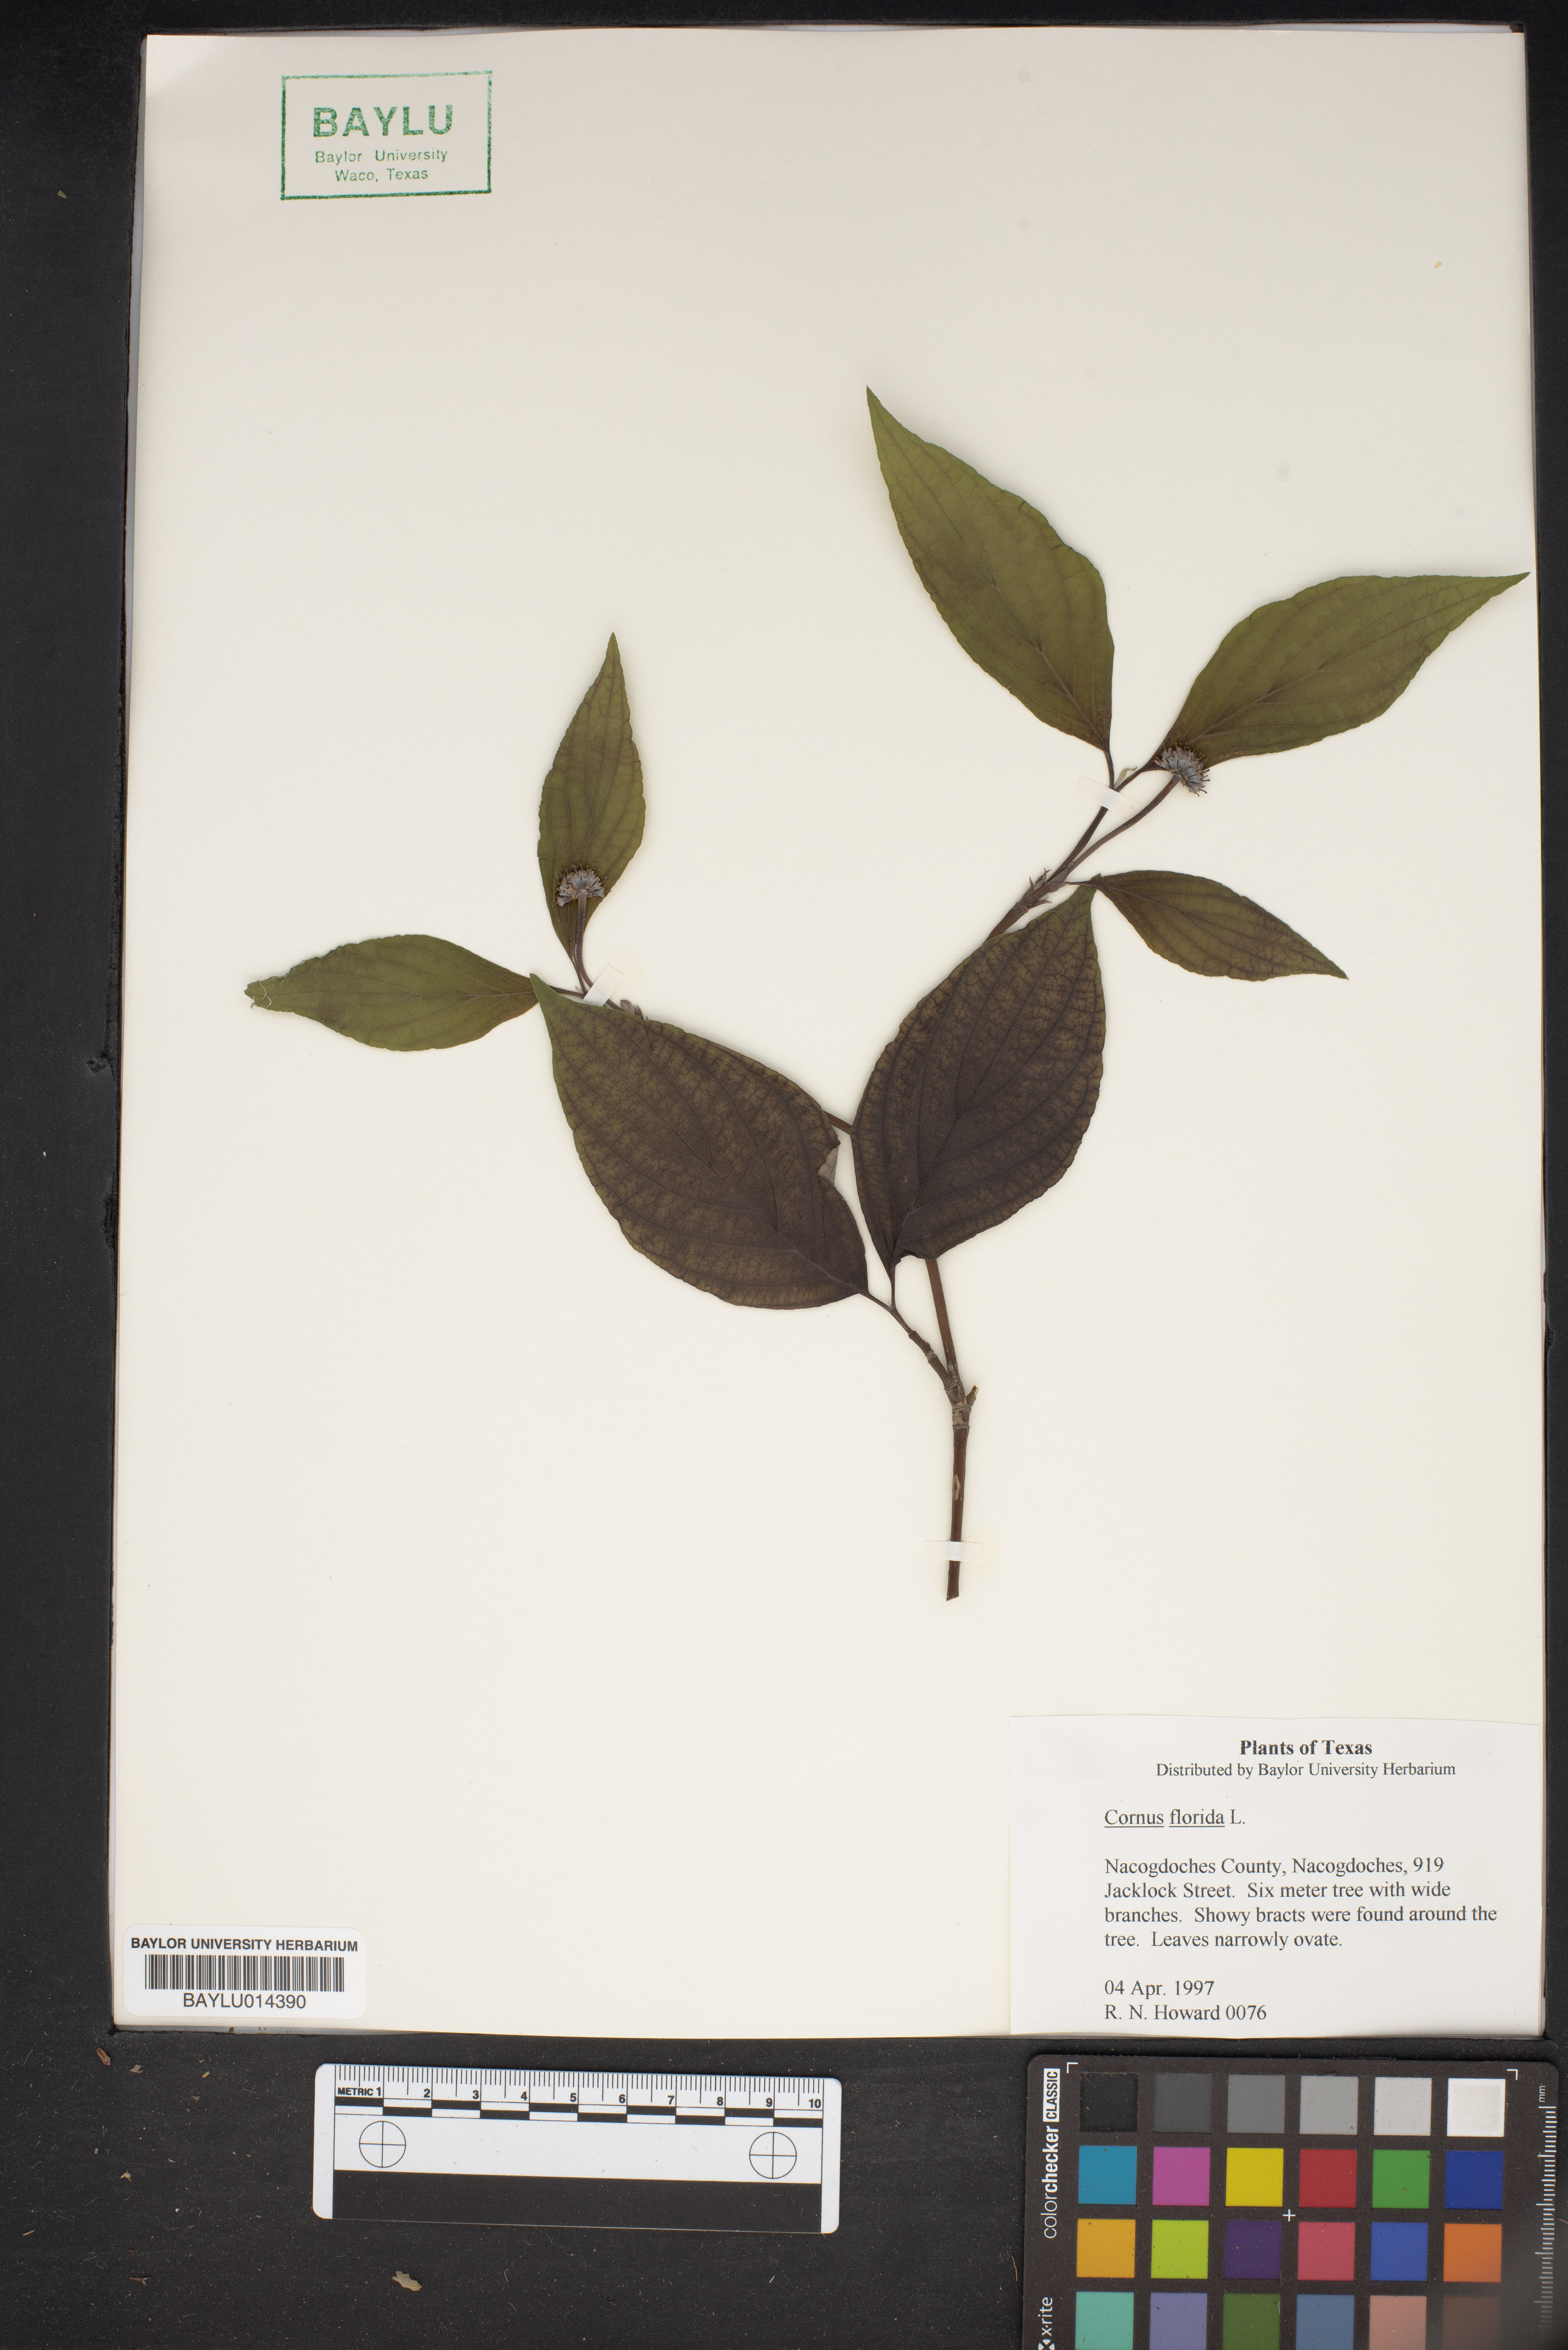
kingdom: Plantae
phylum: Tracheophyta
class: Magnoliopsida
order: Cornales
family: Cornaceae
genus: Cornus
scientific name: Cornus florida
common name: Flowering dogwood
